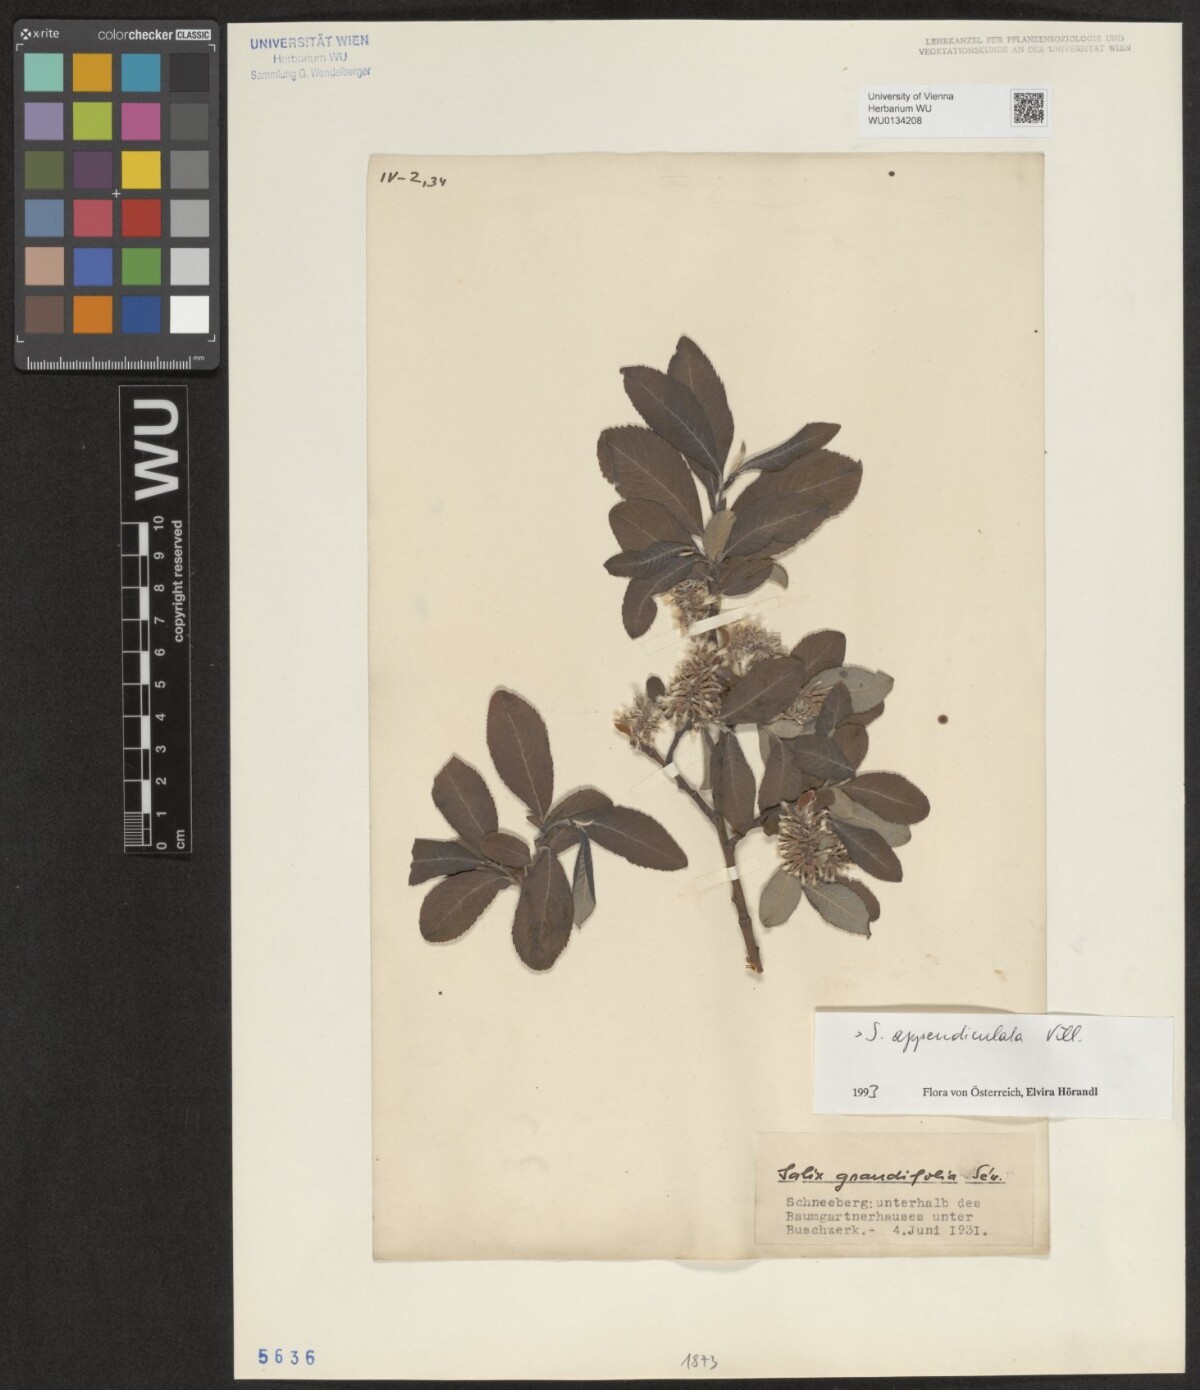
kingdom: Plantae
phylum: Tracheophyta
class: Magnoliopsida
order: Malpighiales
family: Salicaceae
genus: Salix
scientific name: Salix appendiculata
